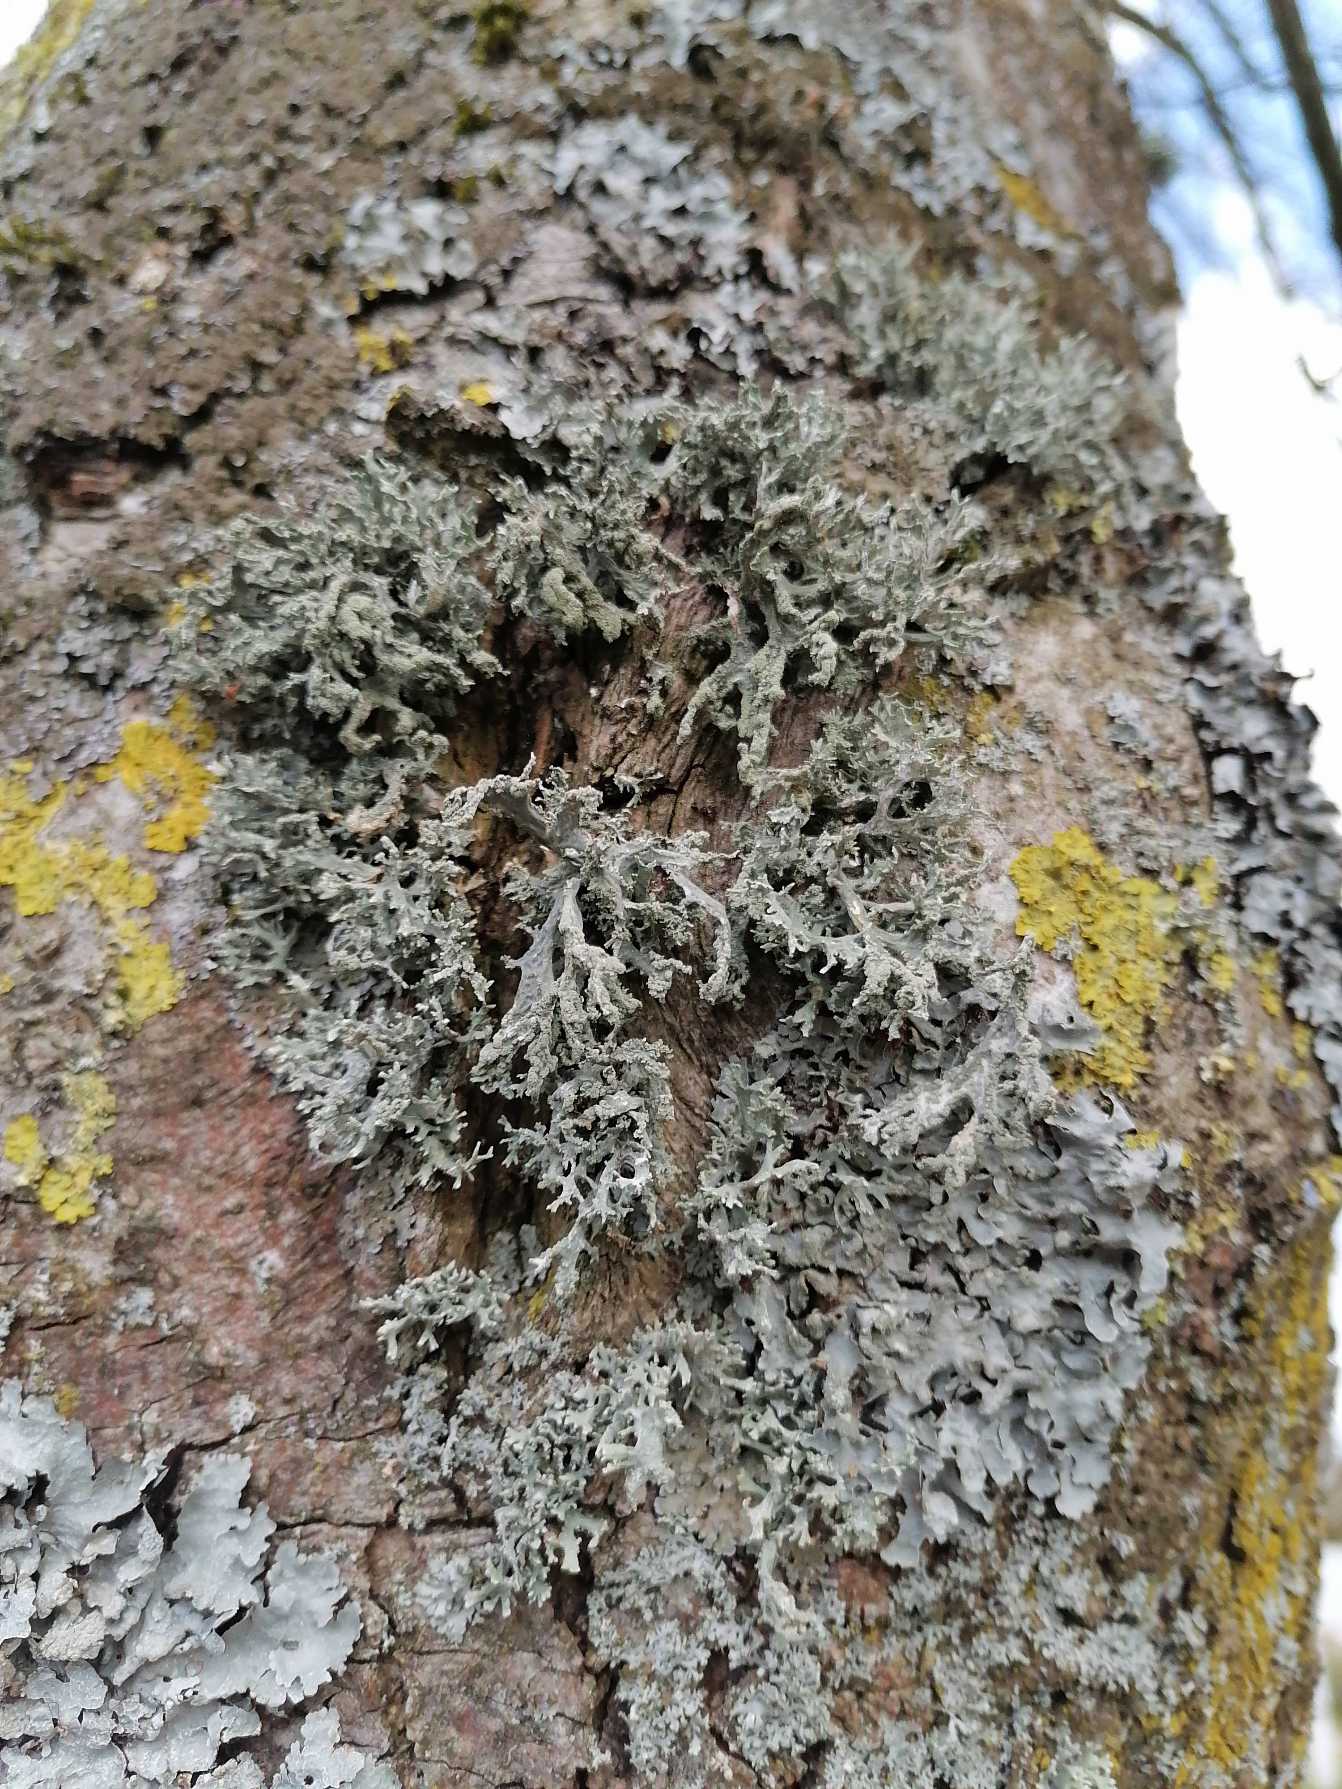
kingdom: Fungi
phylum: Ascomycota
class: Lecanoromycetes
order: Lecanorales
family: Parmeliaceae
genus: Evernia
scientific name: Evernia prunastri
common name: Almindelig slåenlav
